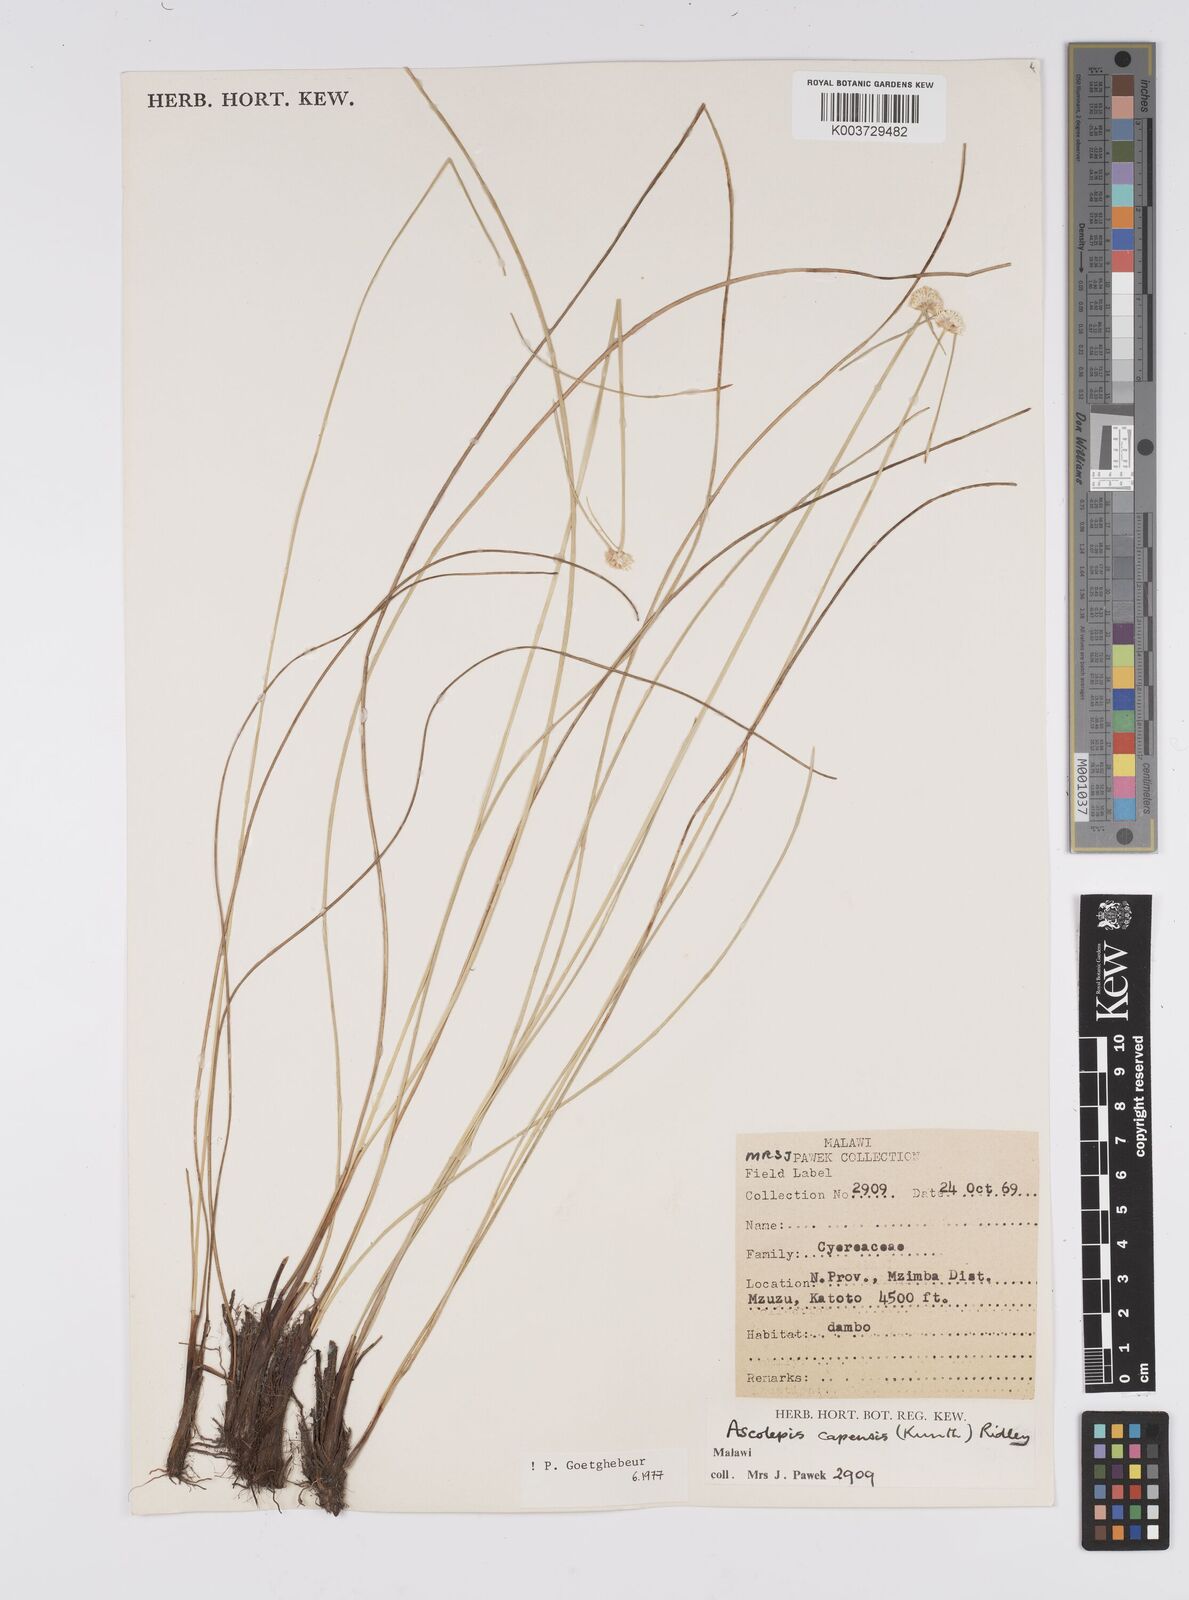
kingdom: Plantae
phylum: Tracheophyta
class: Liliopsida
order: Poales
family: Cyperaceae
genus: Cyperus
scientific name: Cyperus
